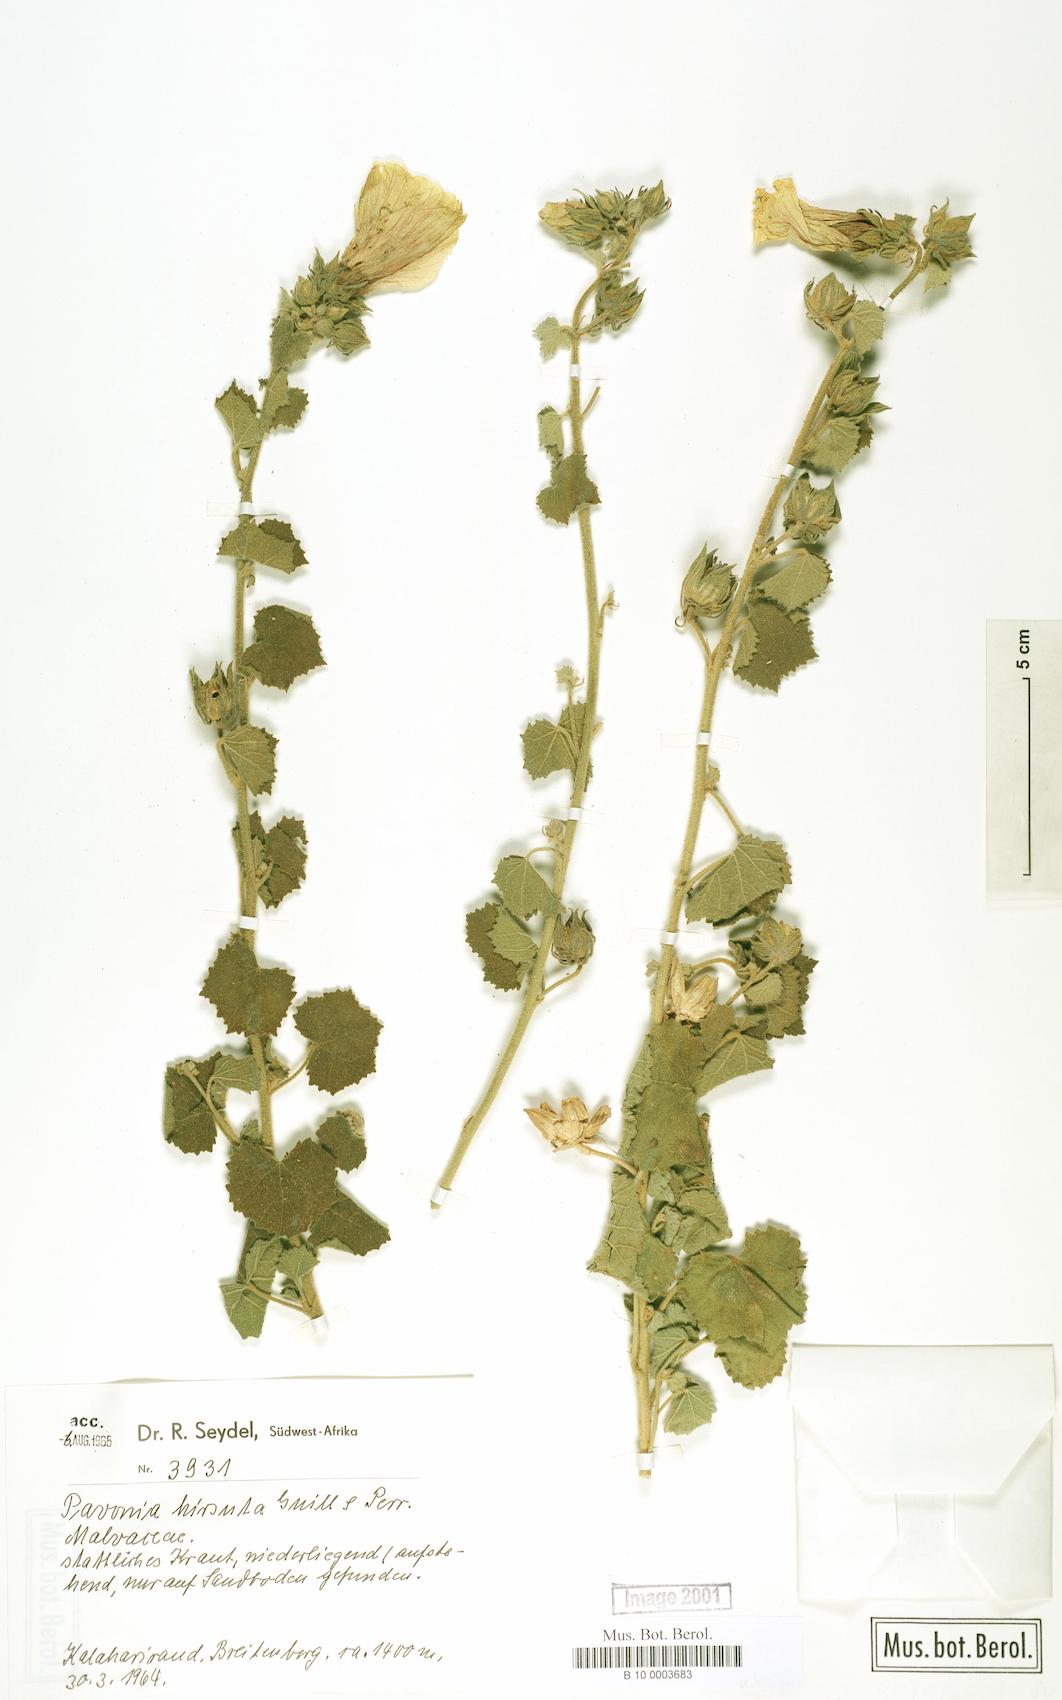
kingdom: Plantae
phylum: Tracheophyta
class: Magnoliopsida
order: Malvales
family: Malvaceae
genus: Pavonia
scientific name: Pavonia senegalensis
